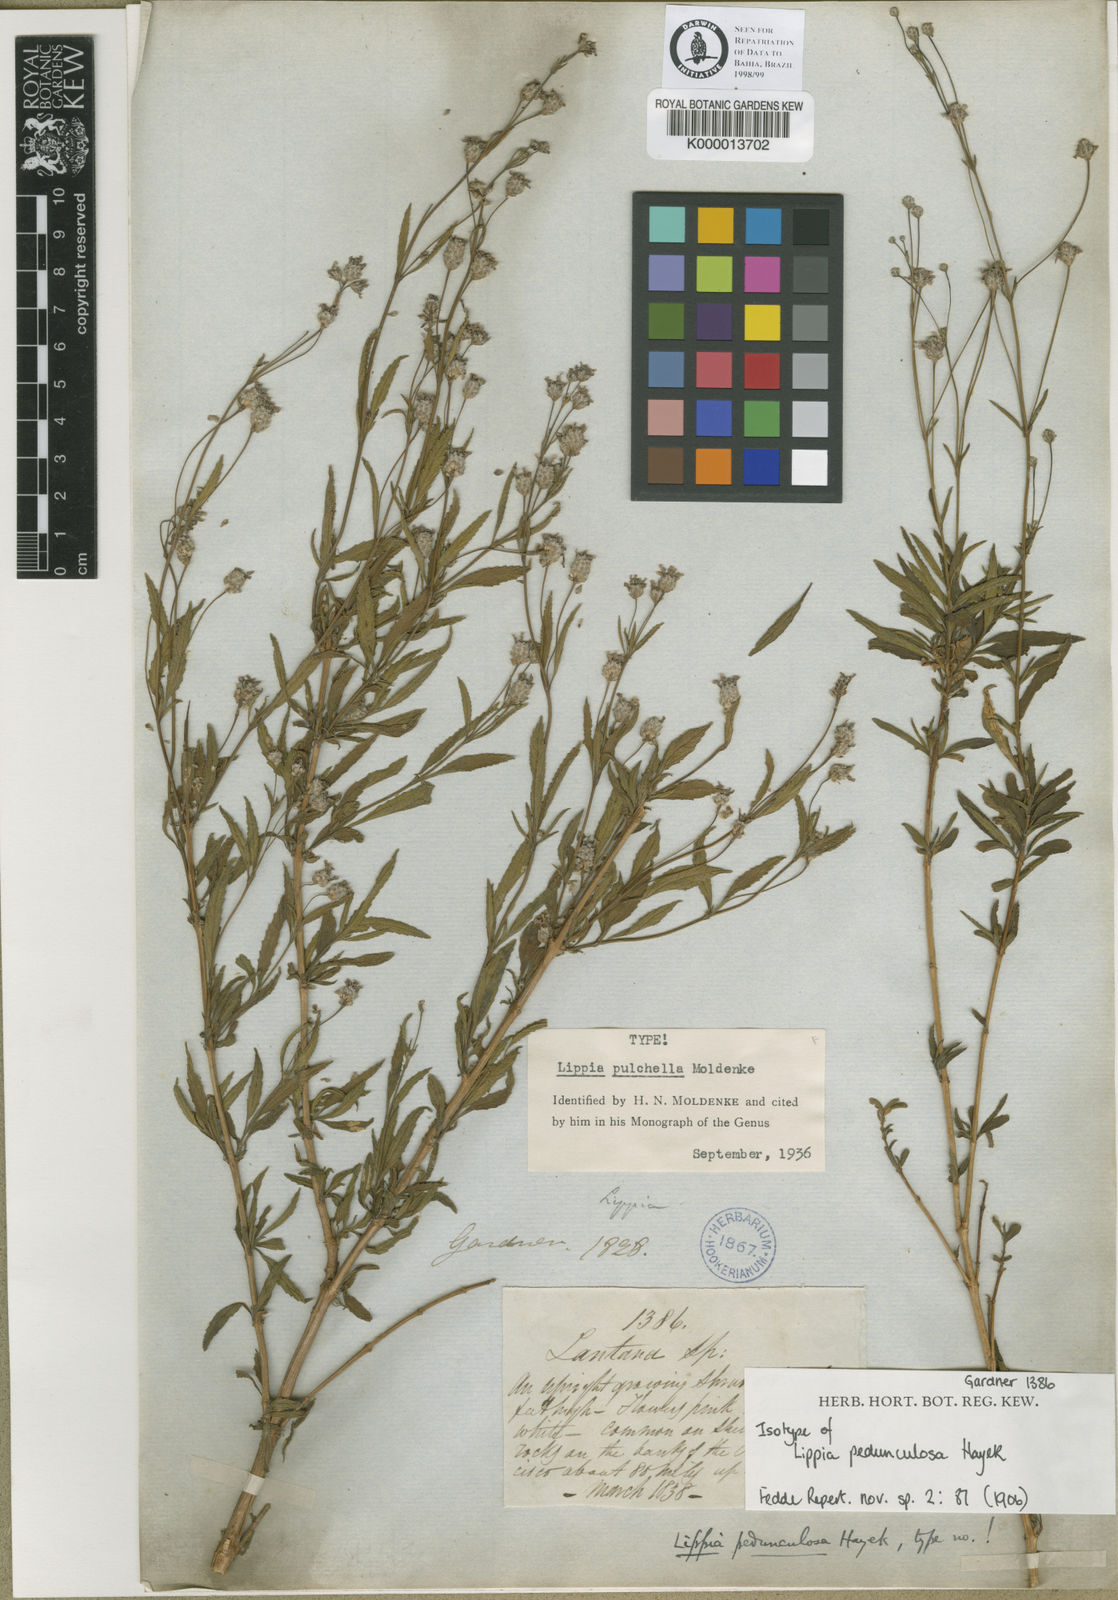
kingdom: Plantae
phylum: Tracheophyta
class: Magnoliopsida
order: Lamiales
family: Verbenaceae
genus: Lippia
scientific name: Lippia pedunculosa
